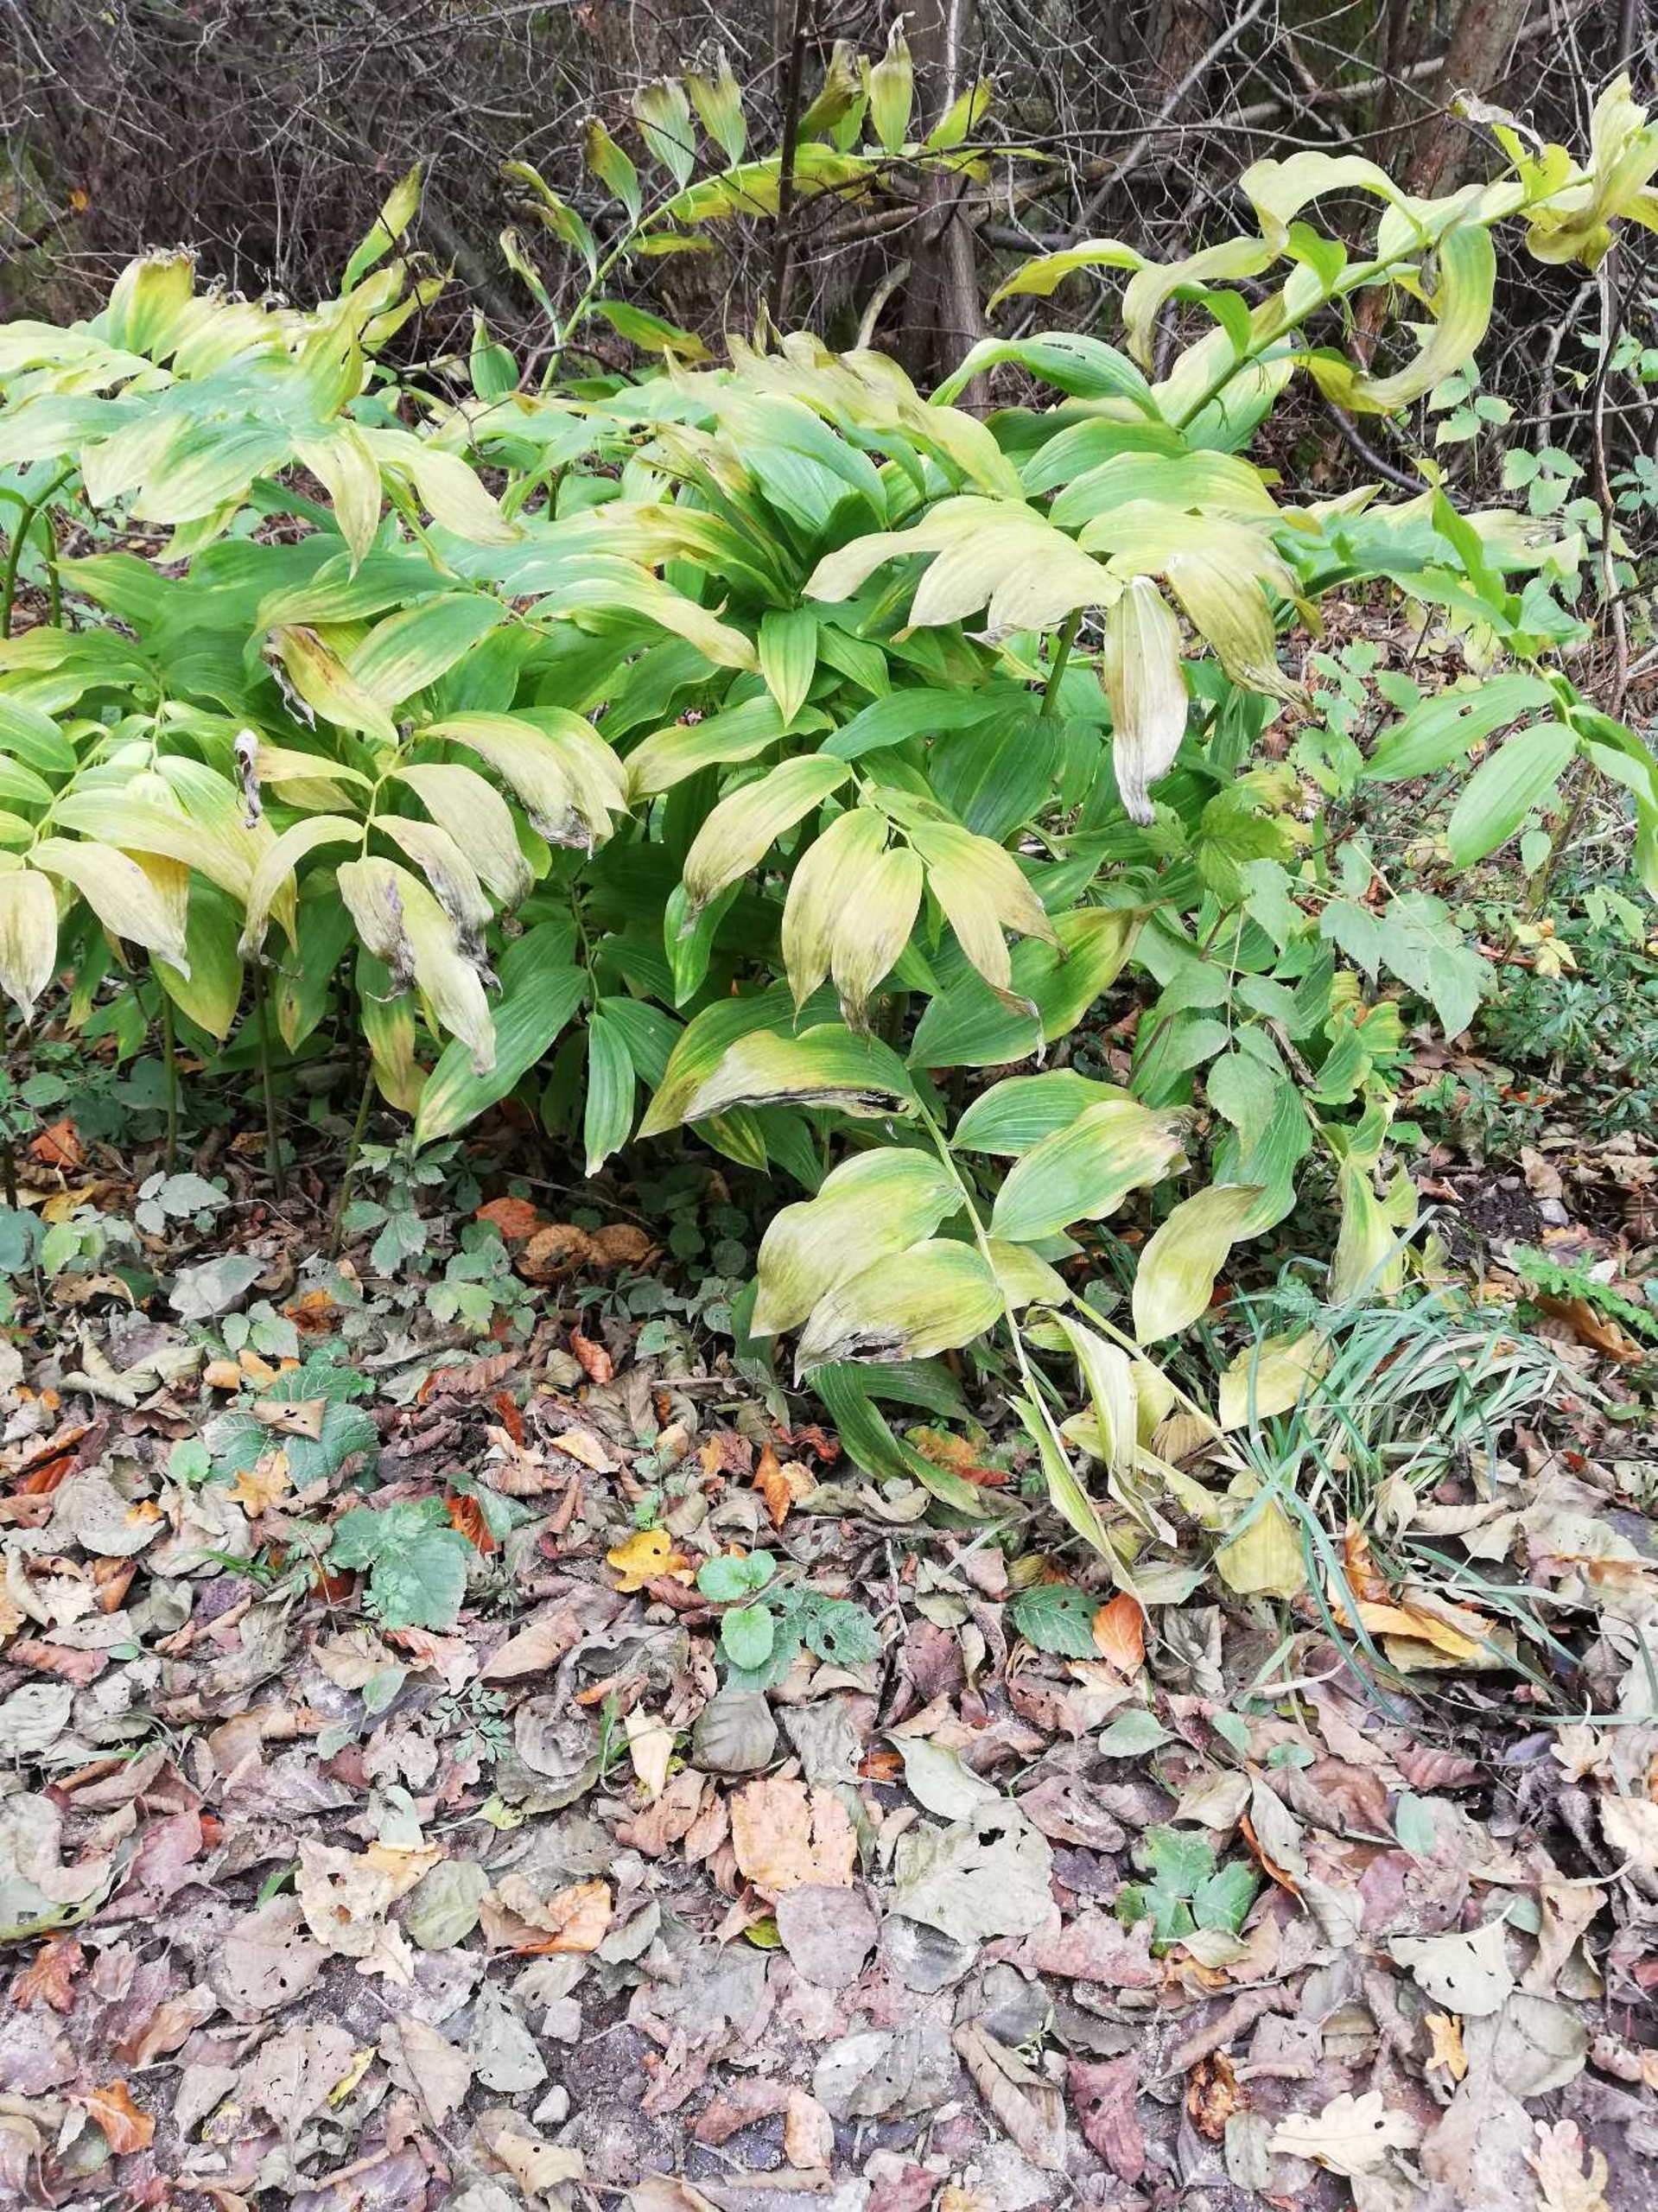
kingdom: Plantae
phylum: Tracheophyta
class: Liliopsida
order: Asparagales
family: Asparagaceae
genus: Polygonatum
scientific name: Polygonatum multiflorum
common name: Stor konval
